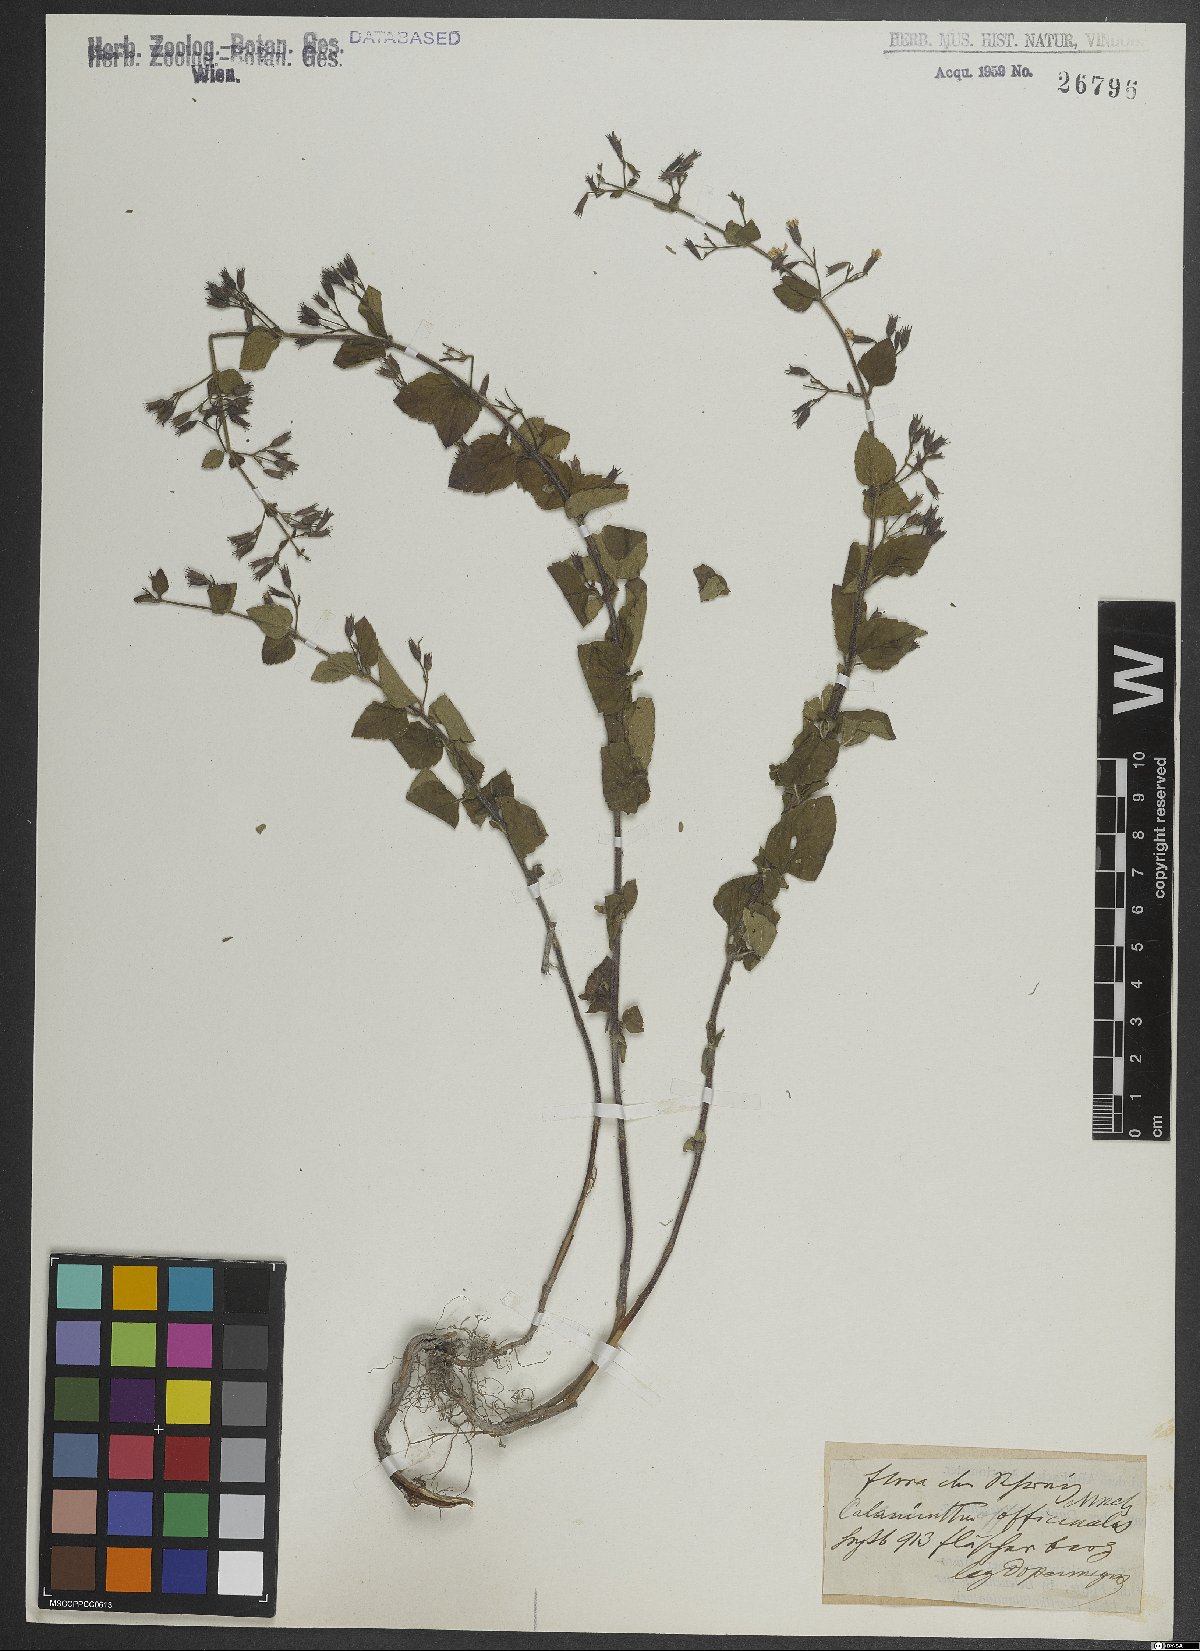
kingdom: Plantae
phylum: Tracheophyta
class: Magnoliopsida
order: Lamiales
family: Lamiaceae
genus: Clinopodium
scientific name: Clinopodium nepeta
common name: Lesser calamint
